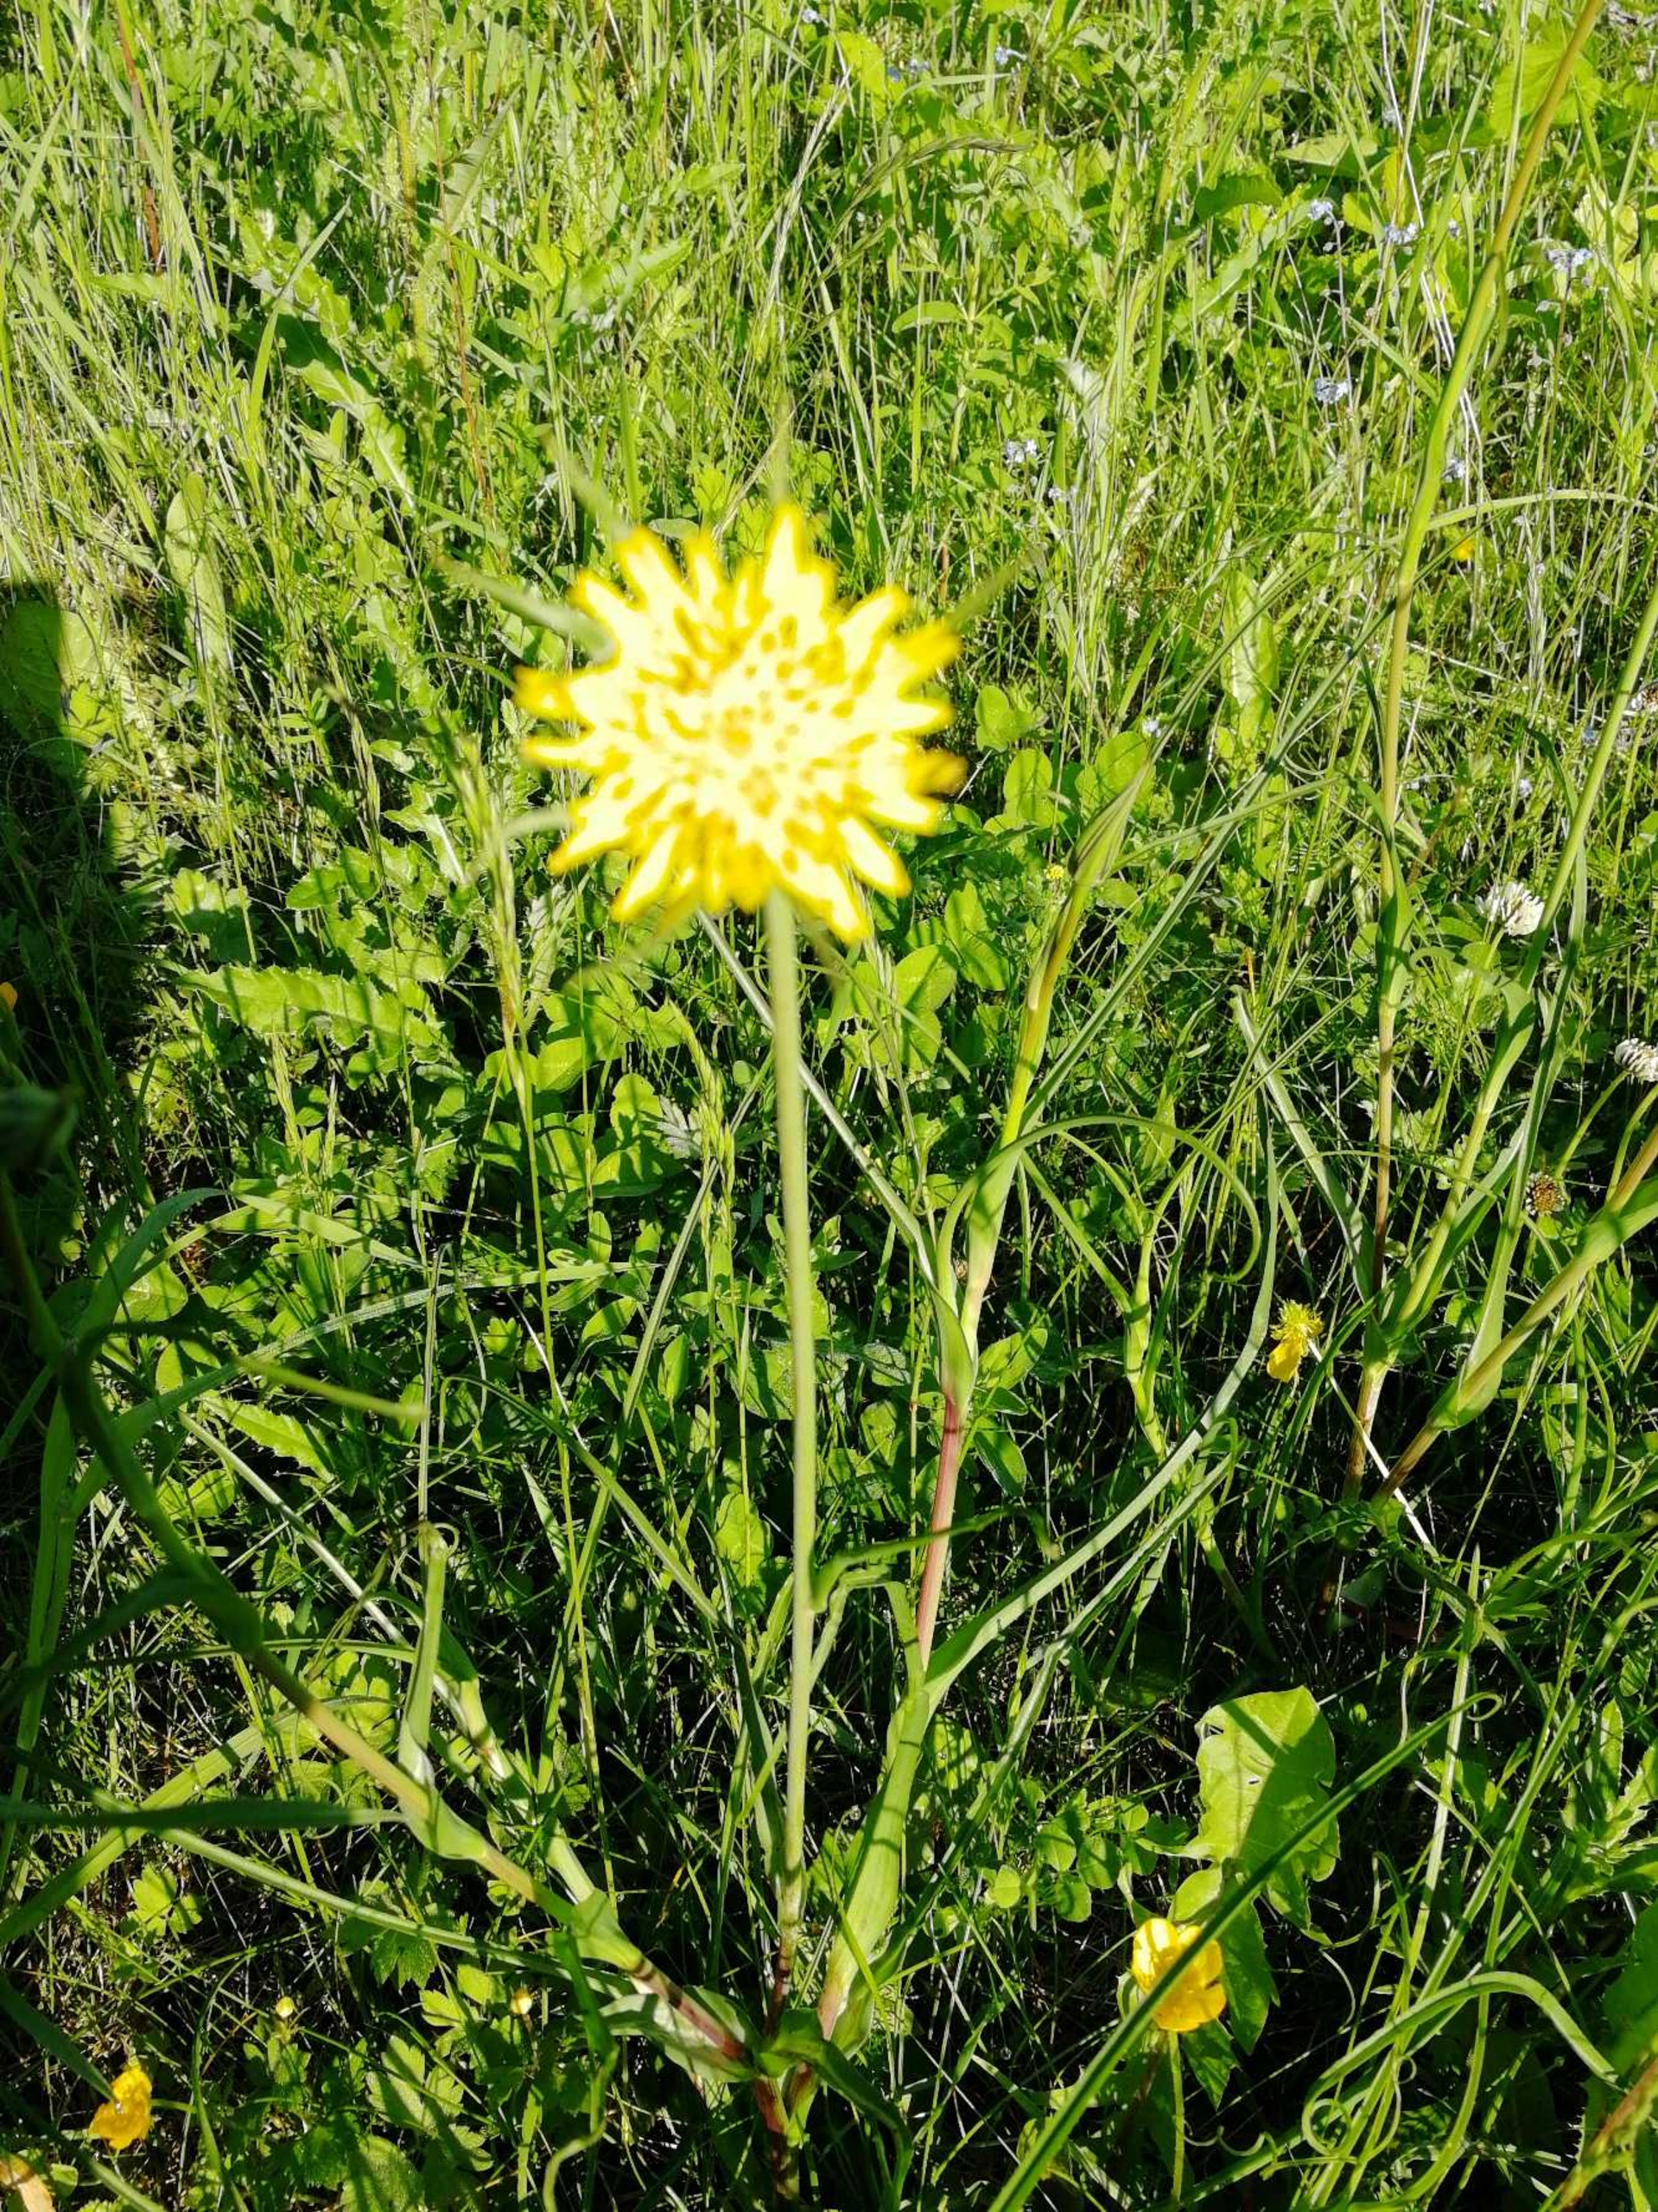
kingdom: Plantae
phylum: Tracheophyta
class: Magnoliopsida
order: Asterales
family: Asteraceae
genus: Tragopogon
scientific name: Tragopogon minor
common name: Småkronet gedeskæg
